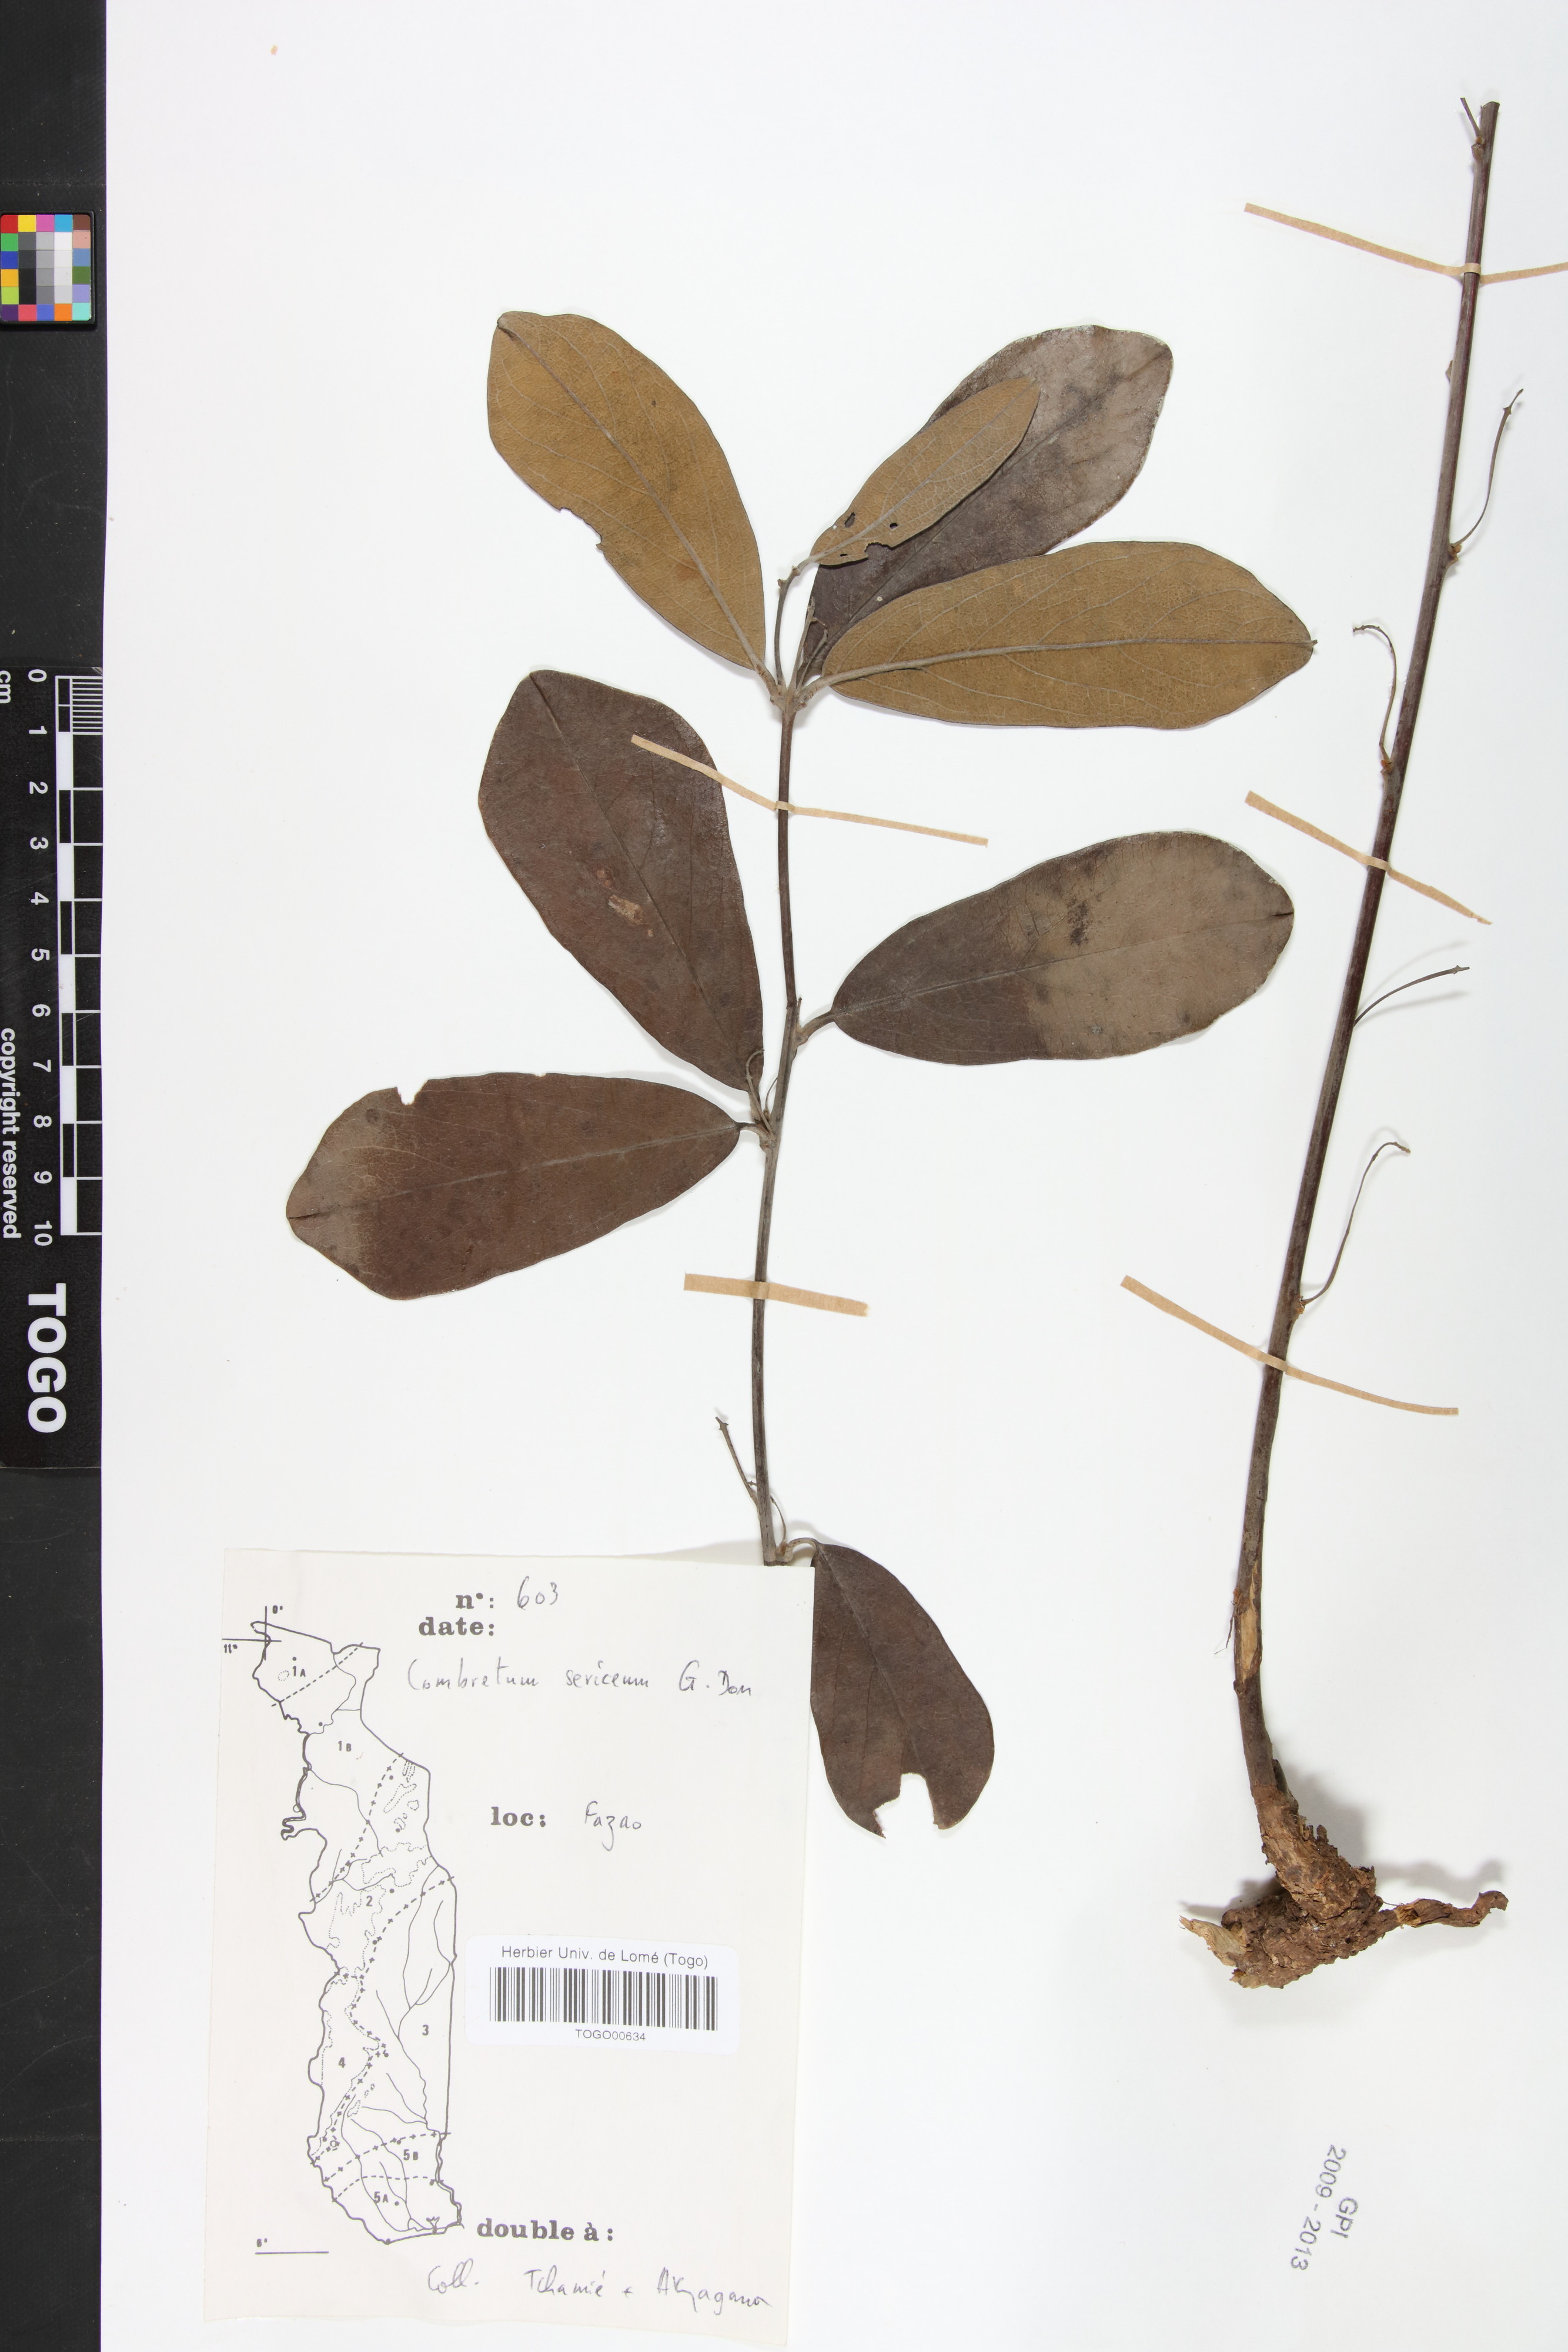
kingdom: Plantae
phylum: Tracheophyta
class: Magnoliopsida
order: Myrtales
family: Combretaceae
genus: Combretum
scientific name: Combretum sericeum
